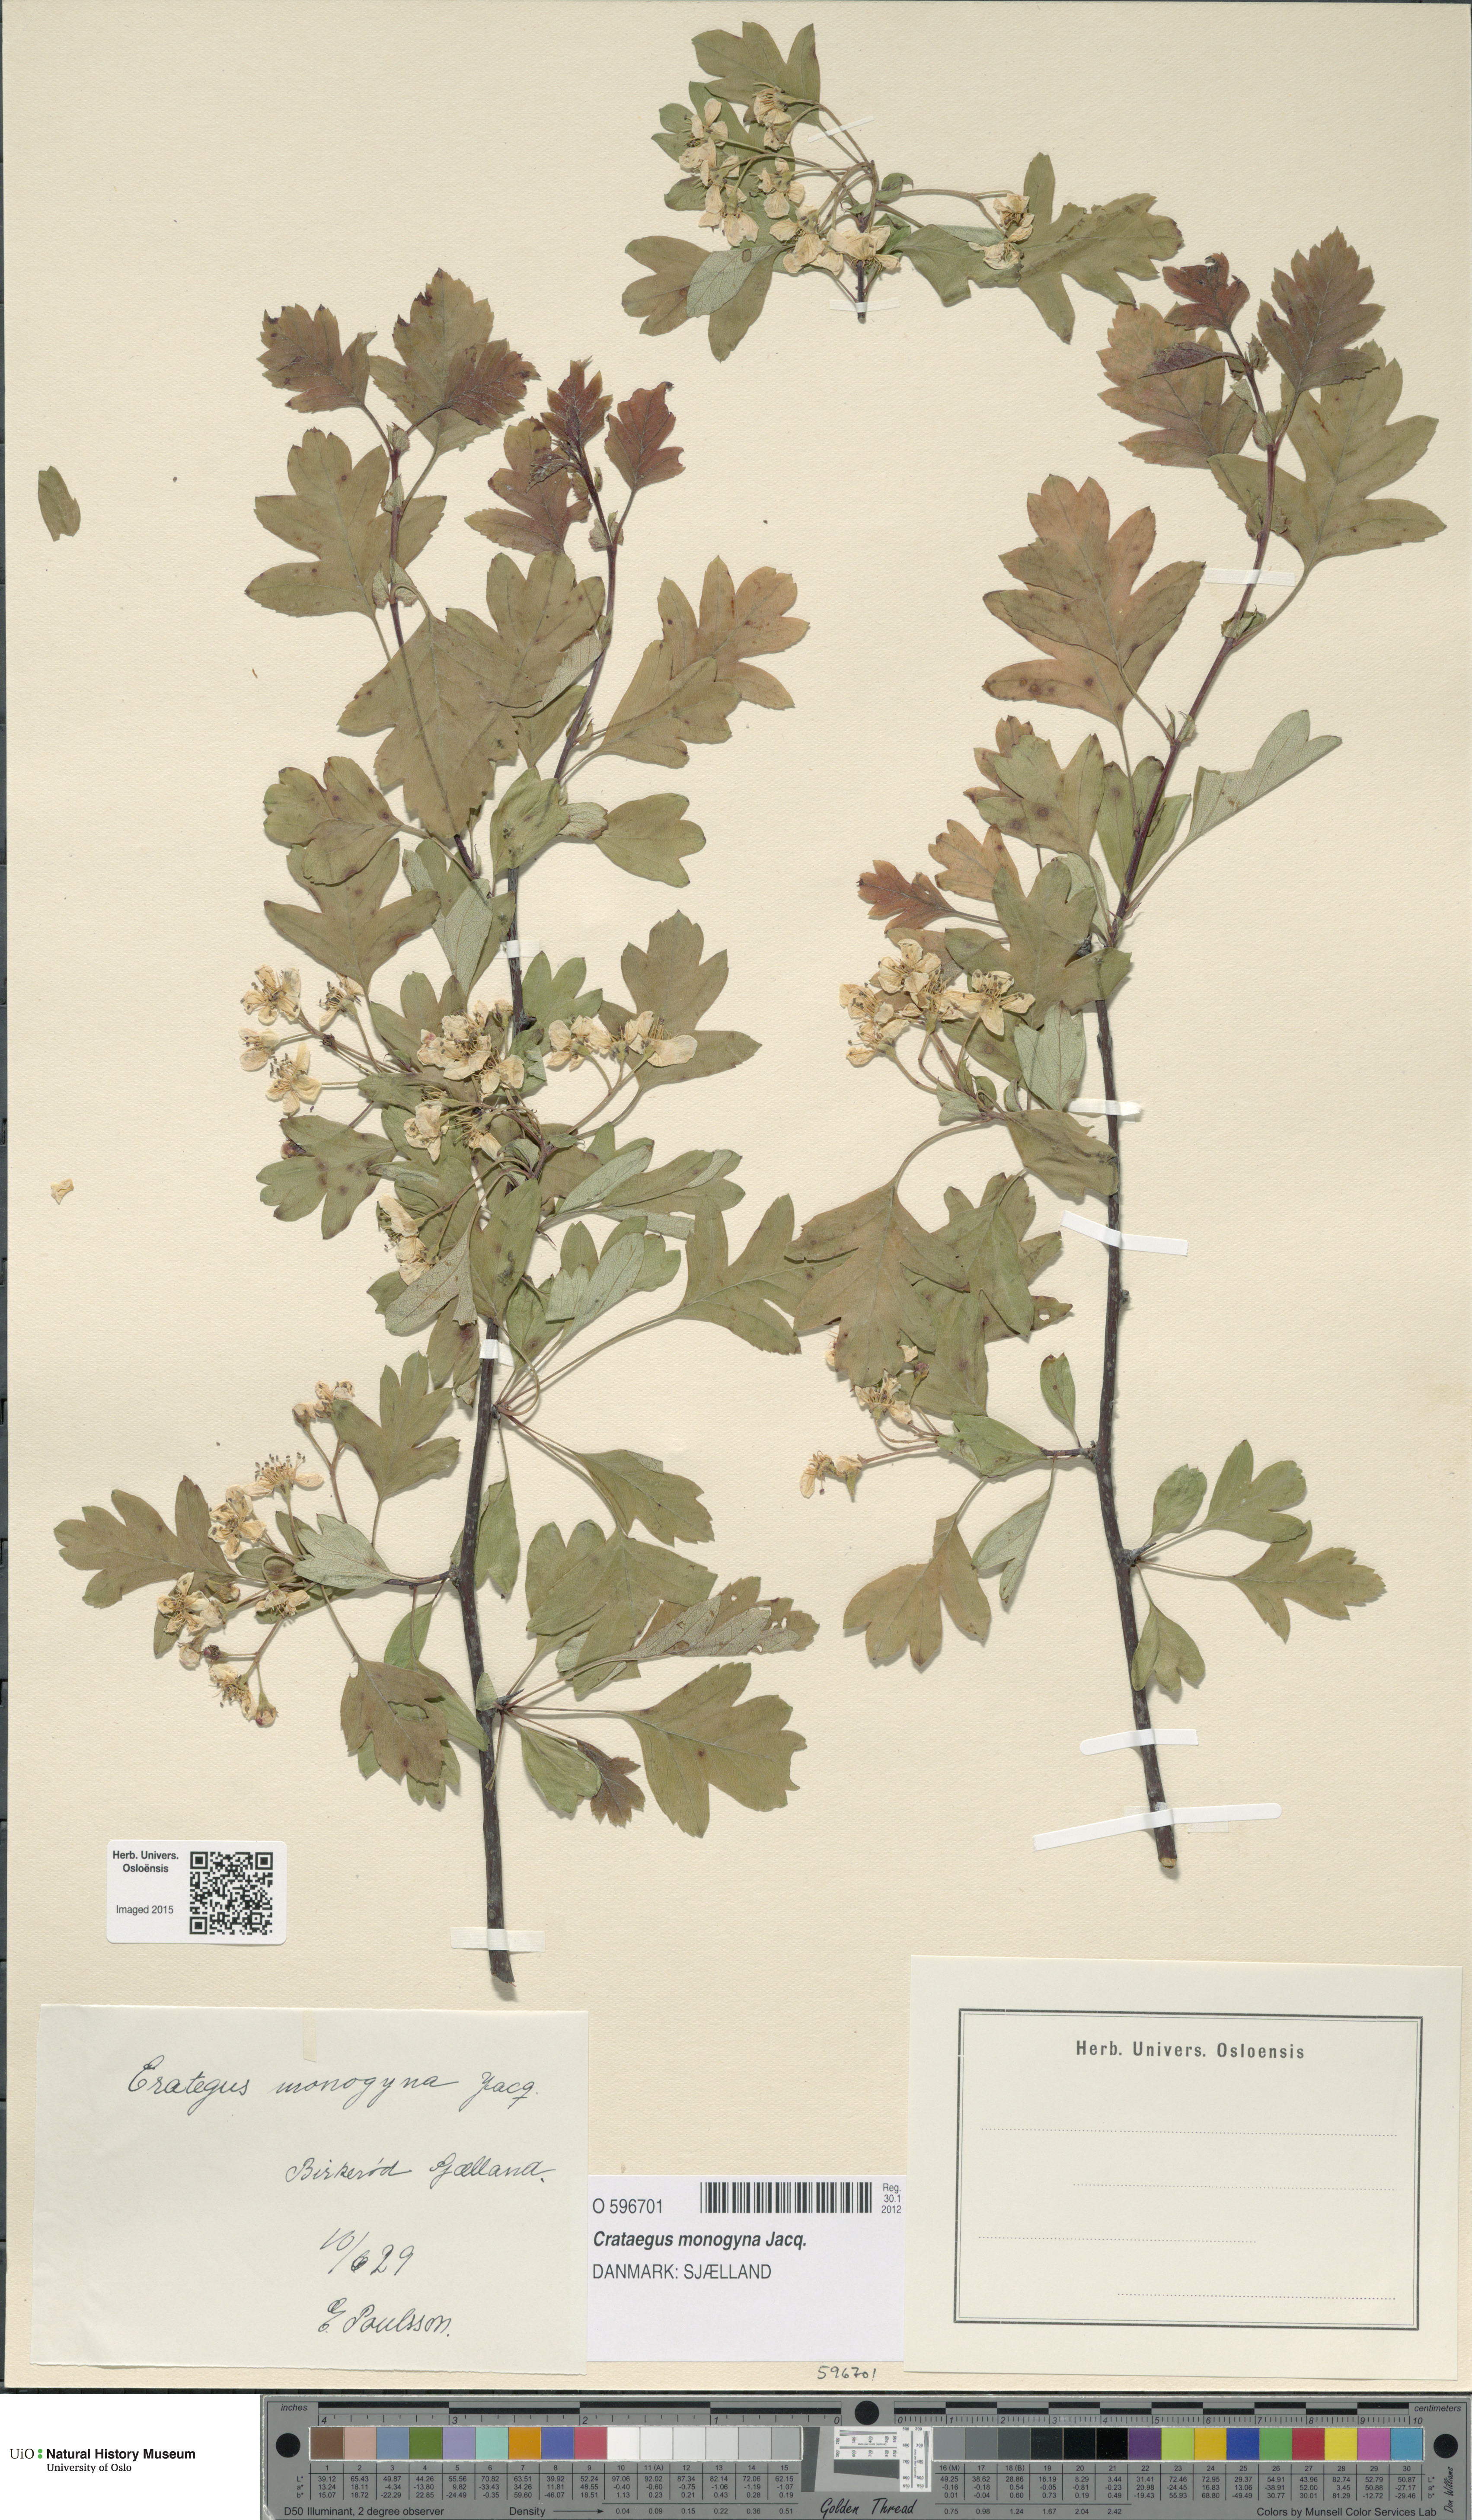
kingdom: Plantae
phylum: Tracheophyta
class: Magnoliopsida
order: Rosales
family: Rosaceae
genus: Crataegus
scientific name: Crataegus monogyna
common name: Hawthorn
